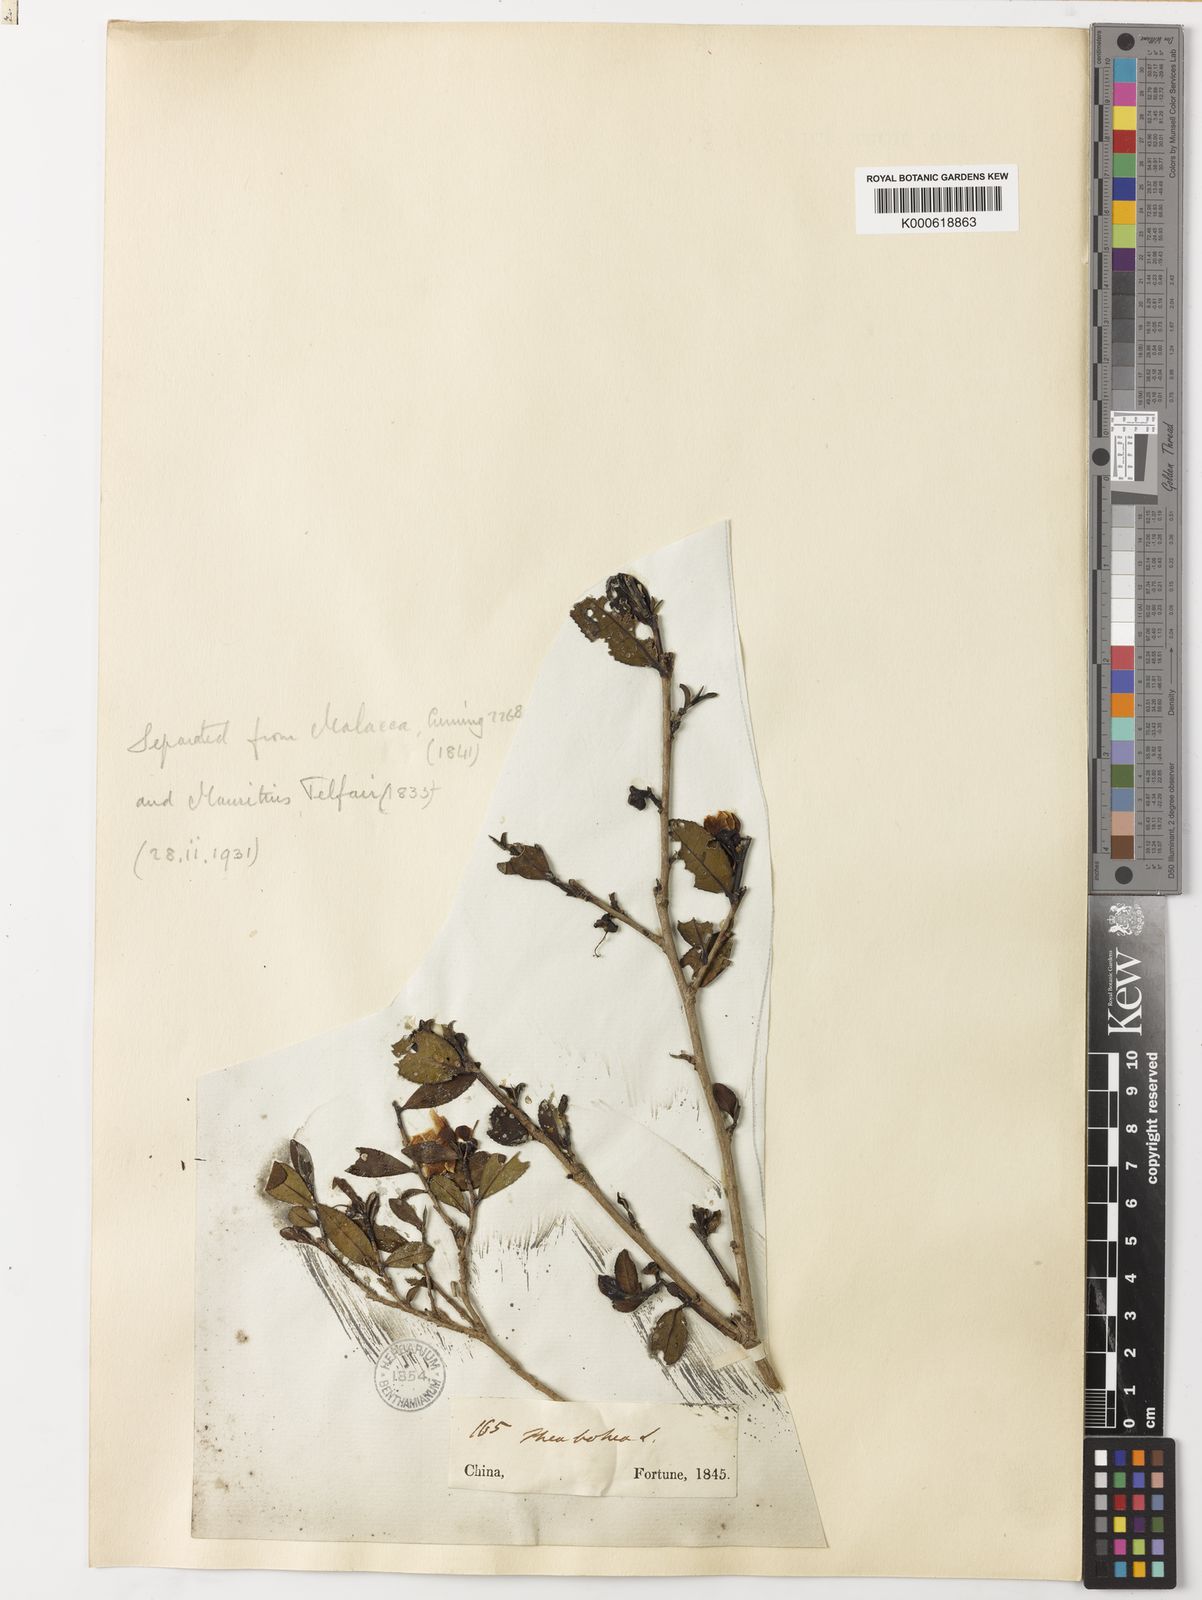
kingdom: Plantae
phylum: Tracheophyta
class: Magnoliopsida
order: Ericales
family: Theaceae
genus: Camellia
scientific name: Camellia
